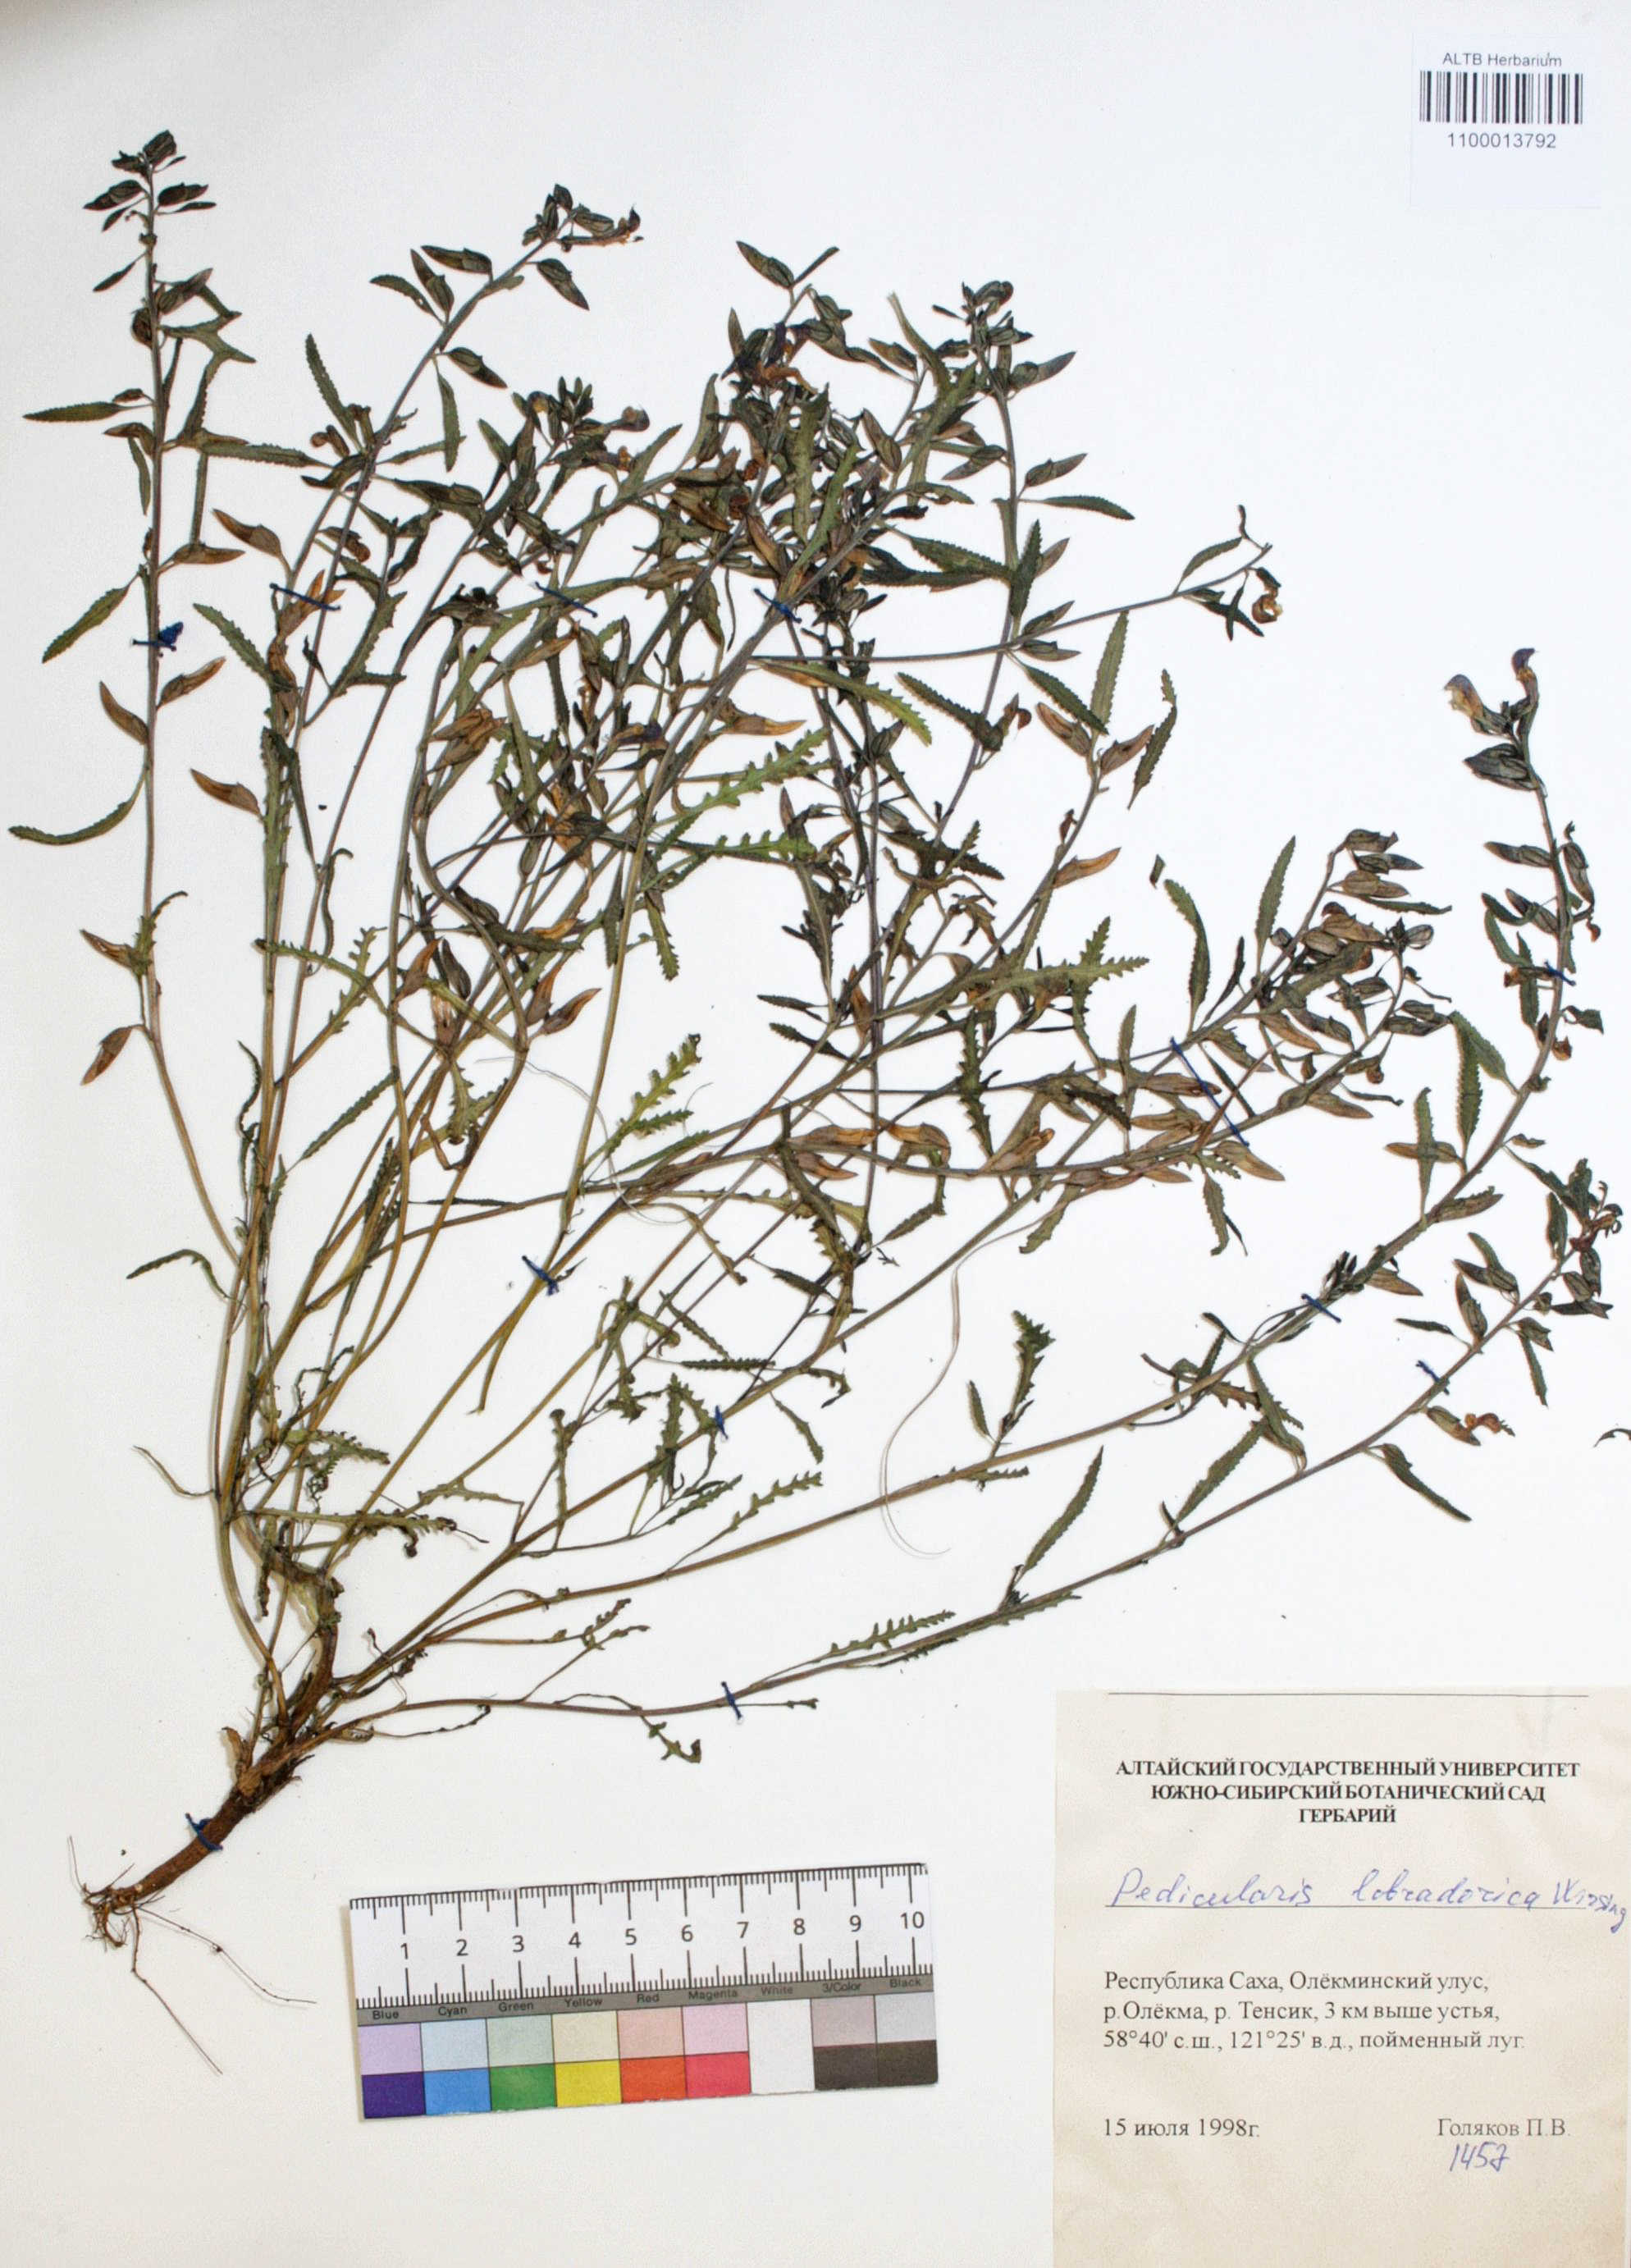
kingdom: Plantae
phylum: Tracheophyta
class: Magnoliopsida
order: Lamiales
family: Orobanchaceae
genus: Pedicularis
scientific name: Pedicularis labradorica
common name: Labrador lousewort
